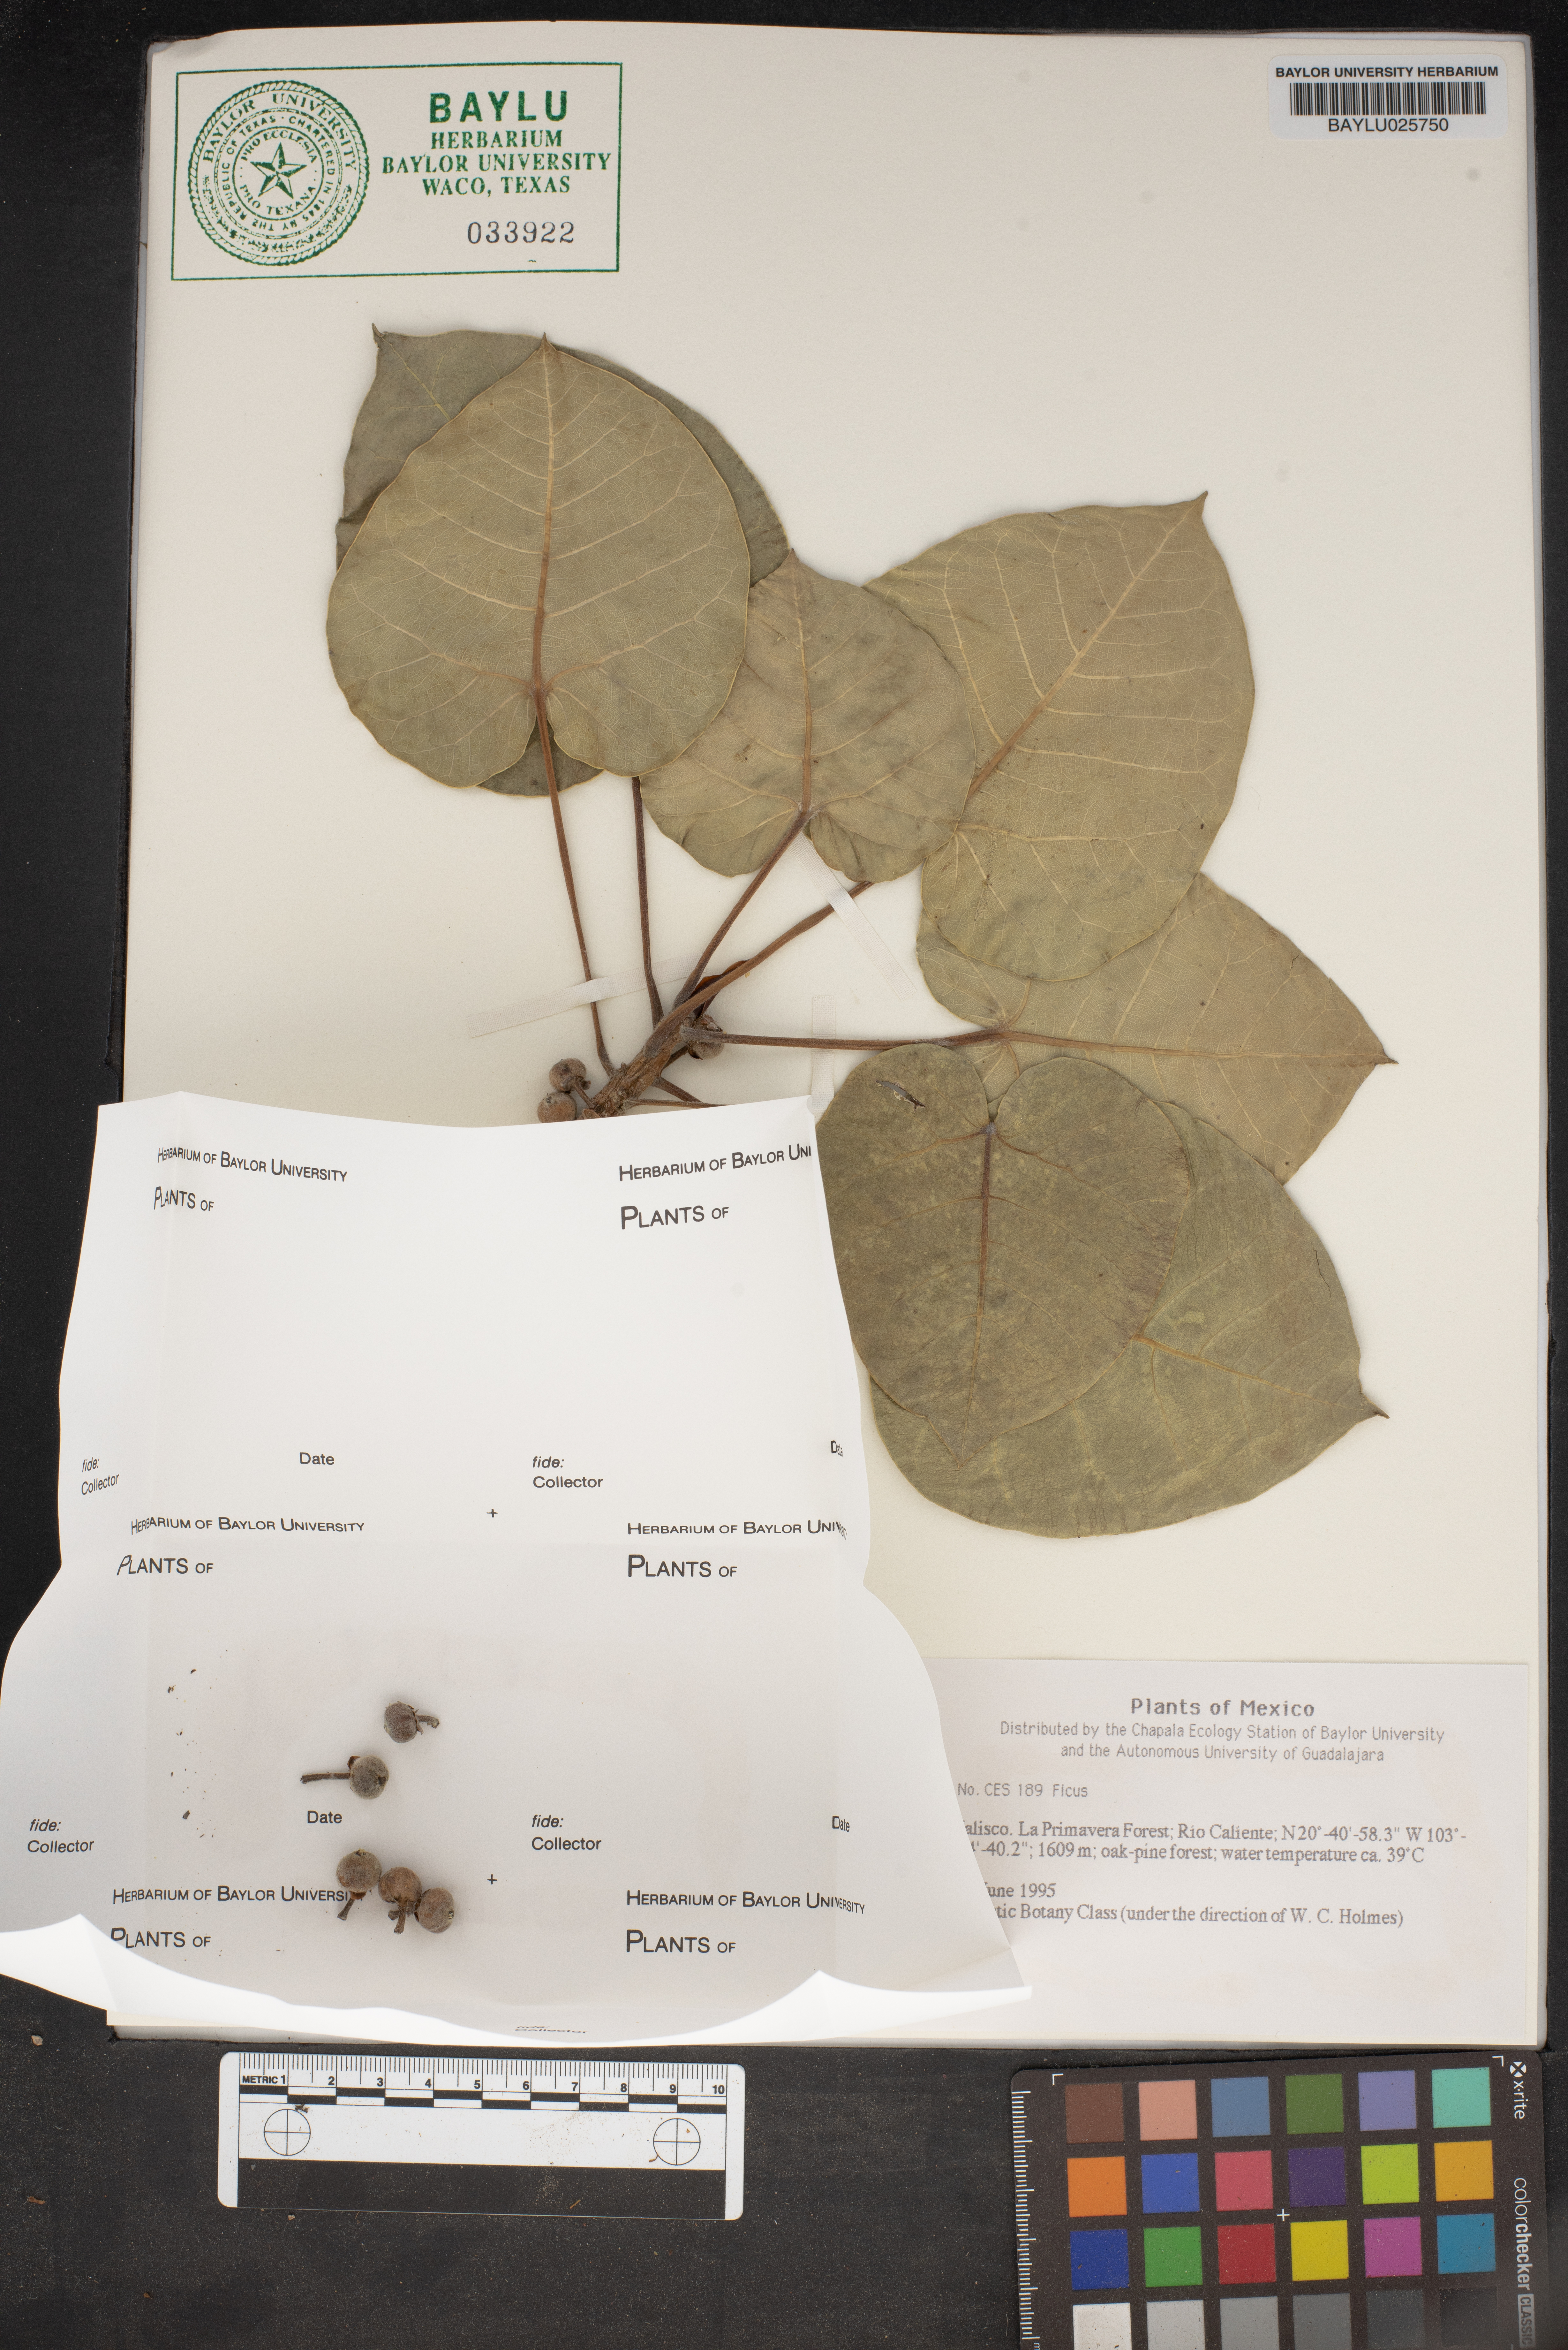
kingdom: Plantae
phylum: Tracheophyta
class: Magnoliopsida
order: Rosales
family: Moraceae
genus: Ficus
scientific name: Ficus
